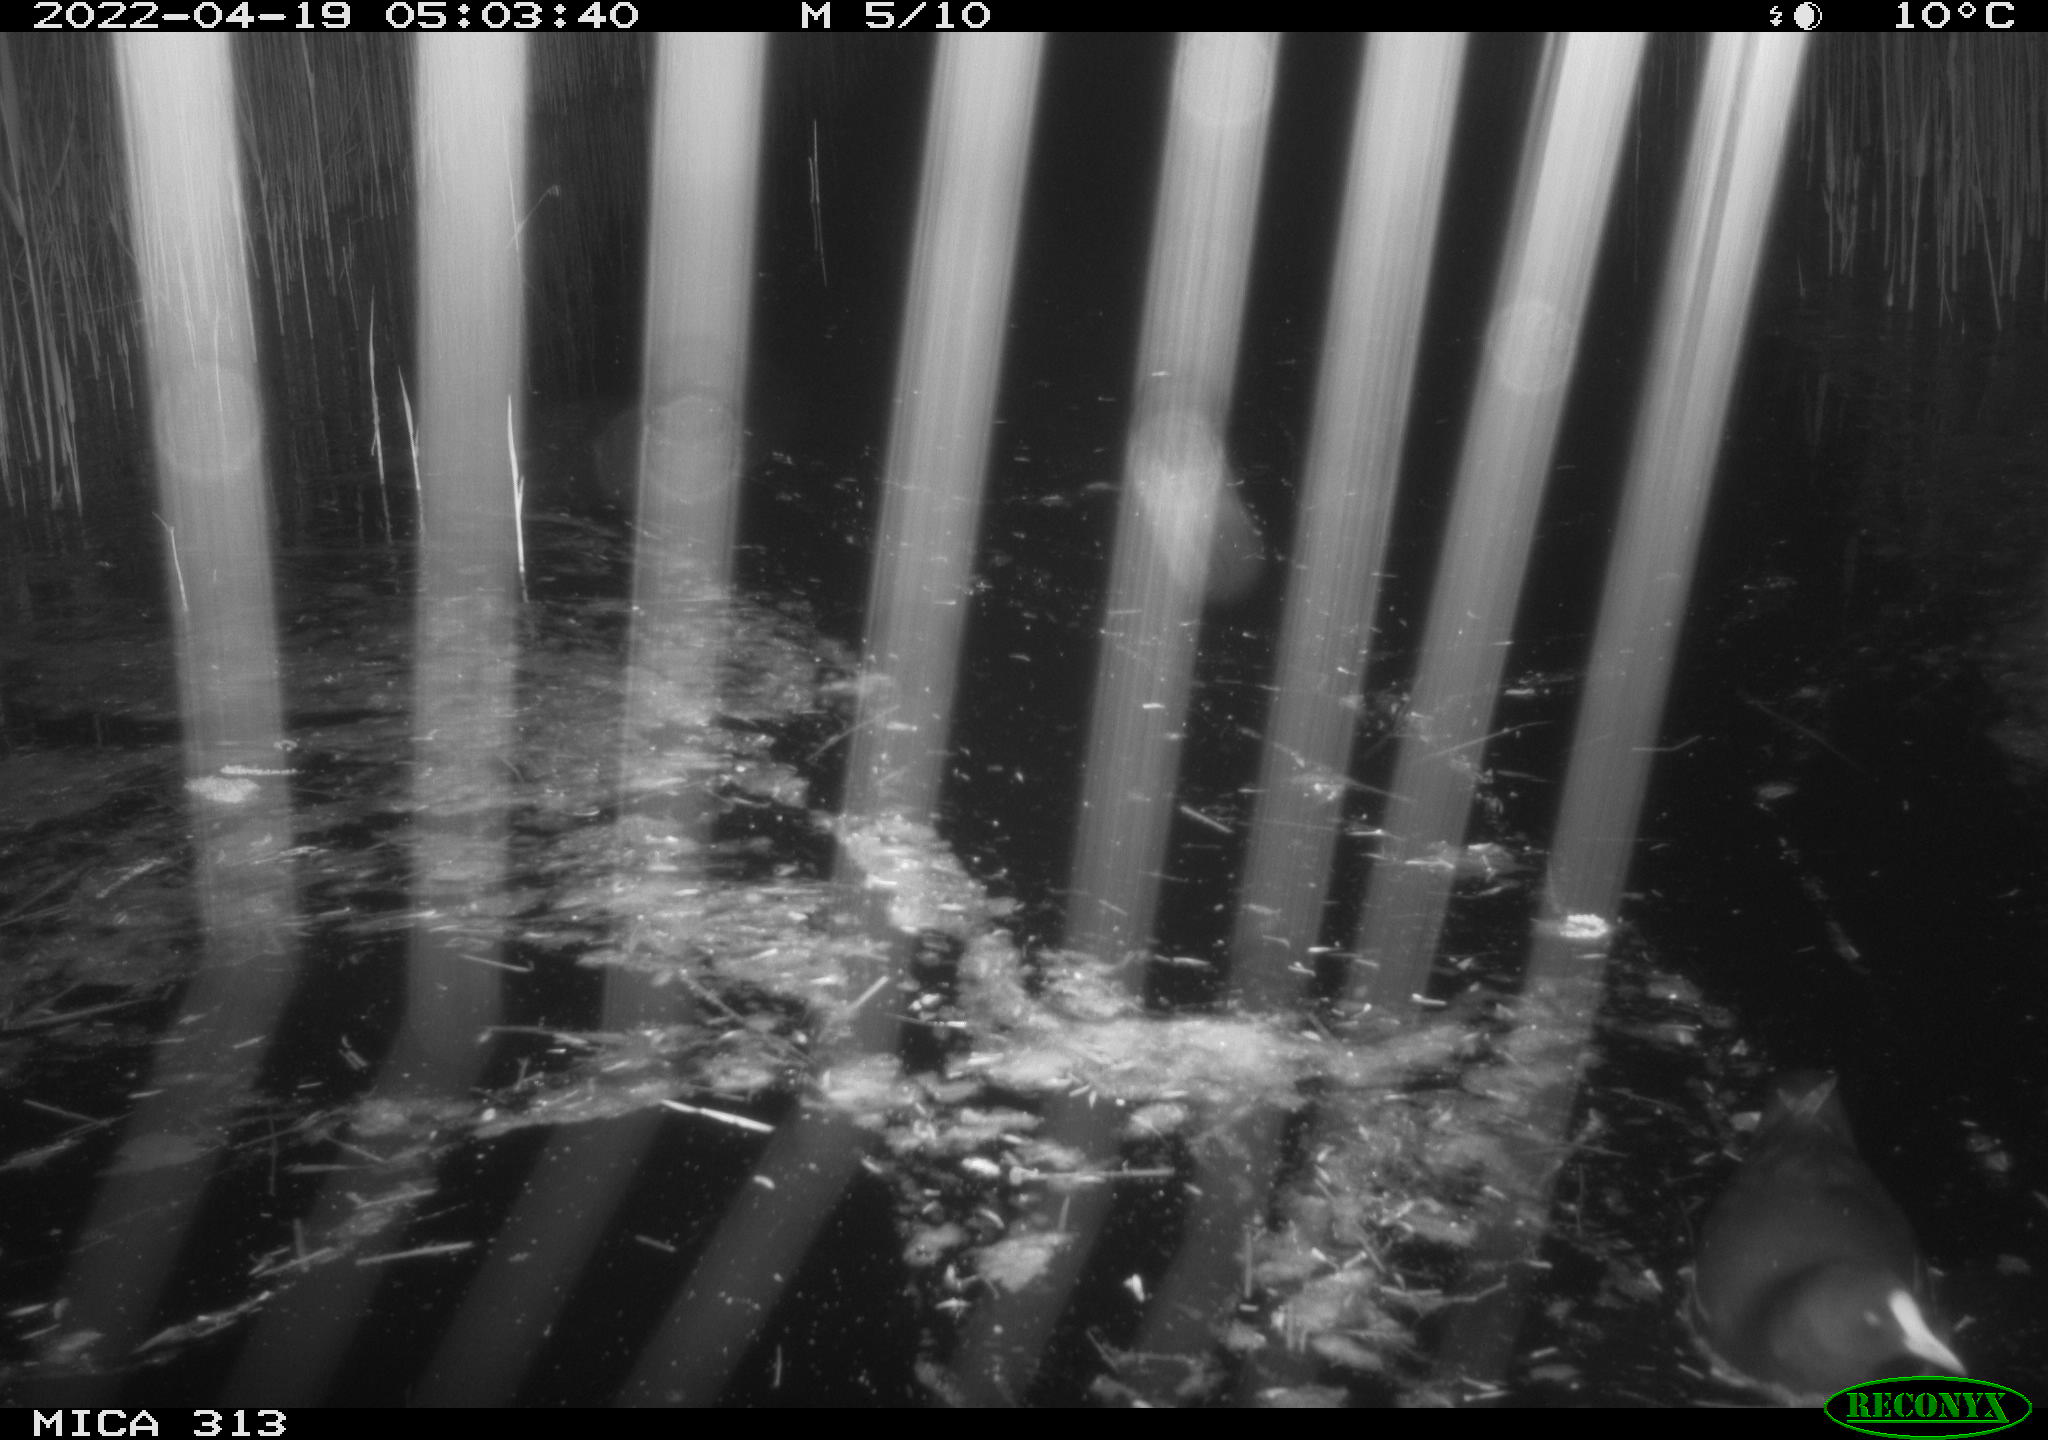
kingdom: Animalia
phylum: Chordata
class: Aves
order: Gruiformes
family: Rallidae
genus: Gallinula
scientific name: Gallinula chloropus
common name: Common moorhen
